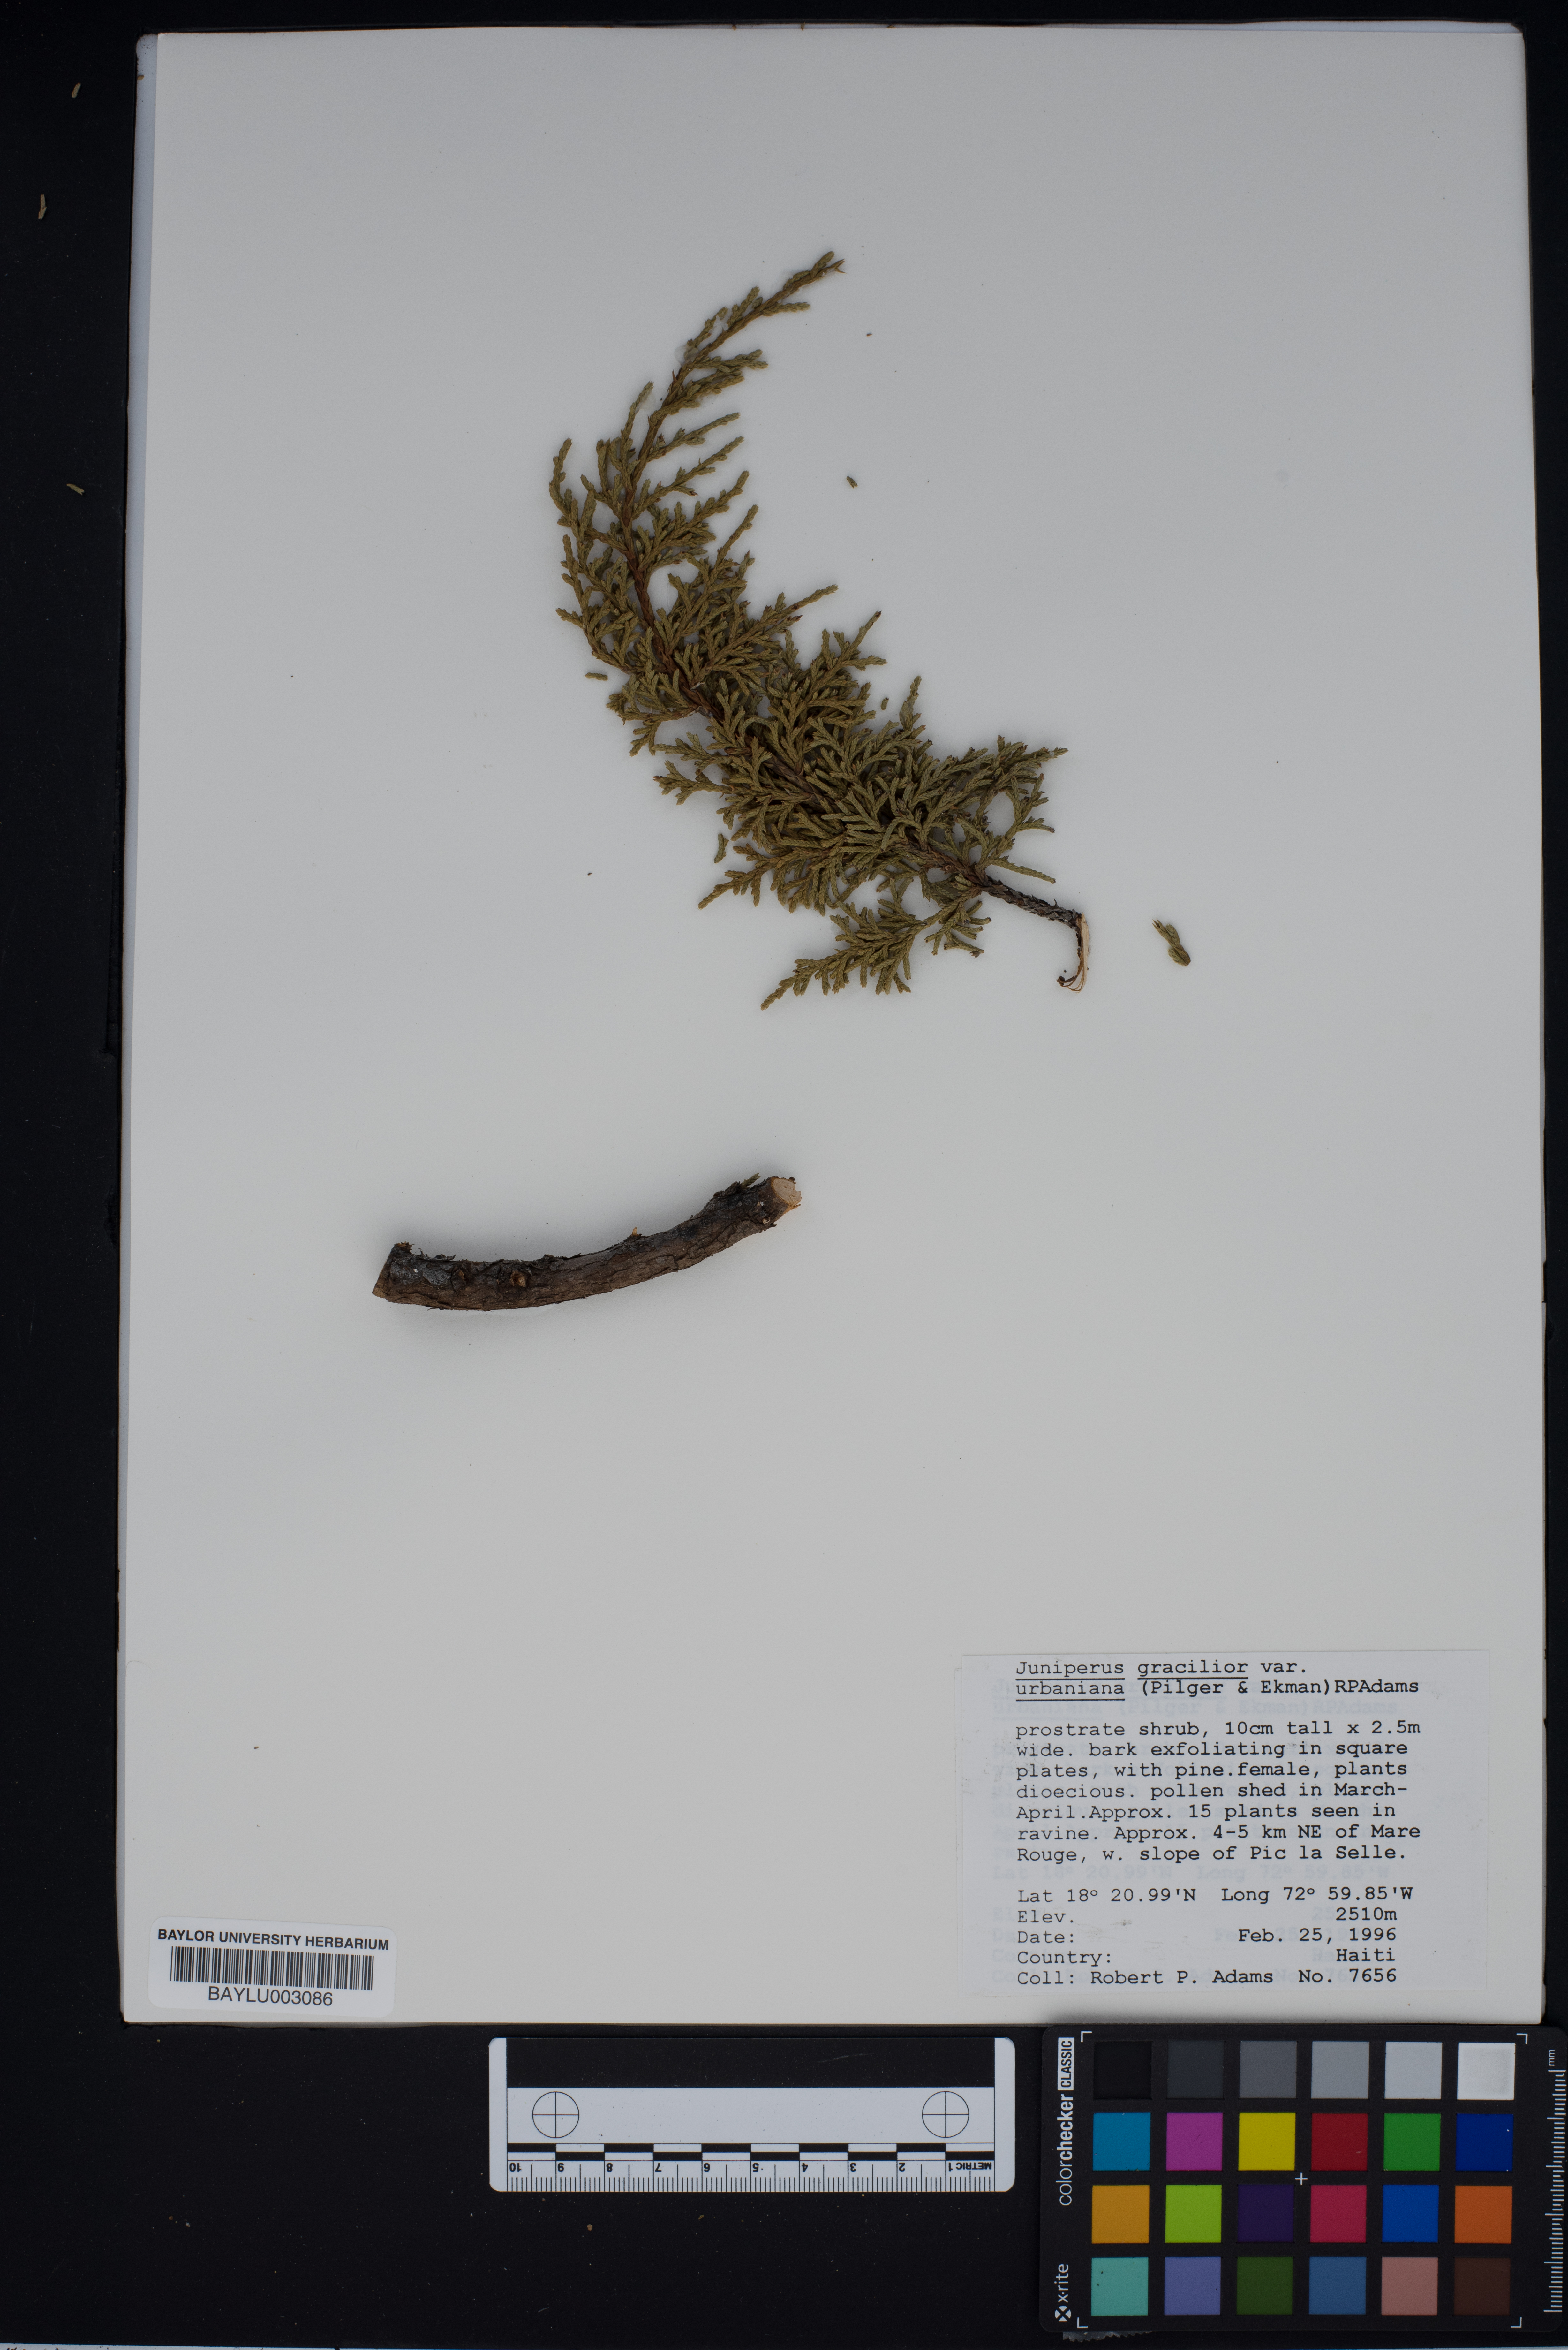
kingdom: Plantae
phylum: Tracheophyta
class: Pinopsida
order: Pinales
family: Cupressaceae
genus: Juniperus
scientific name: Juniperus gracilior
